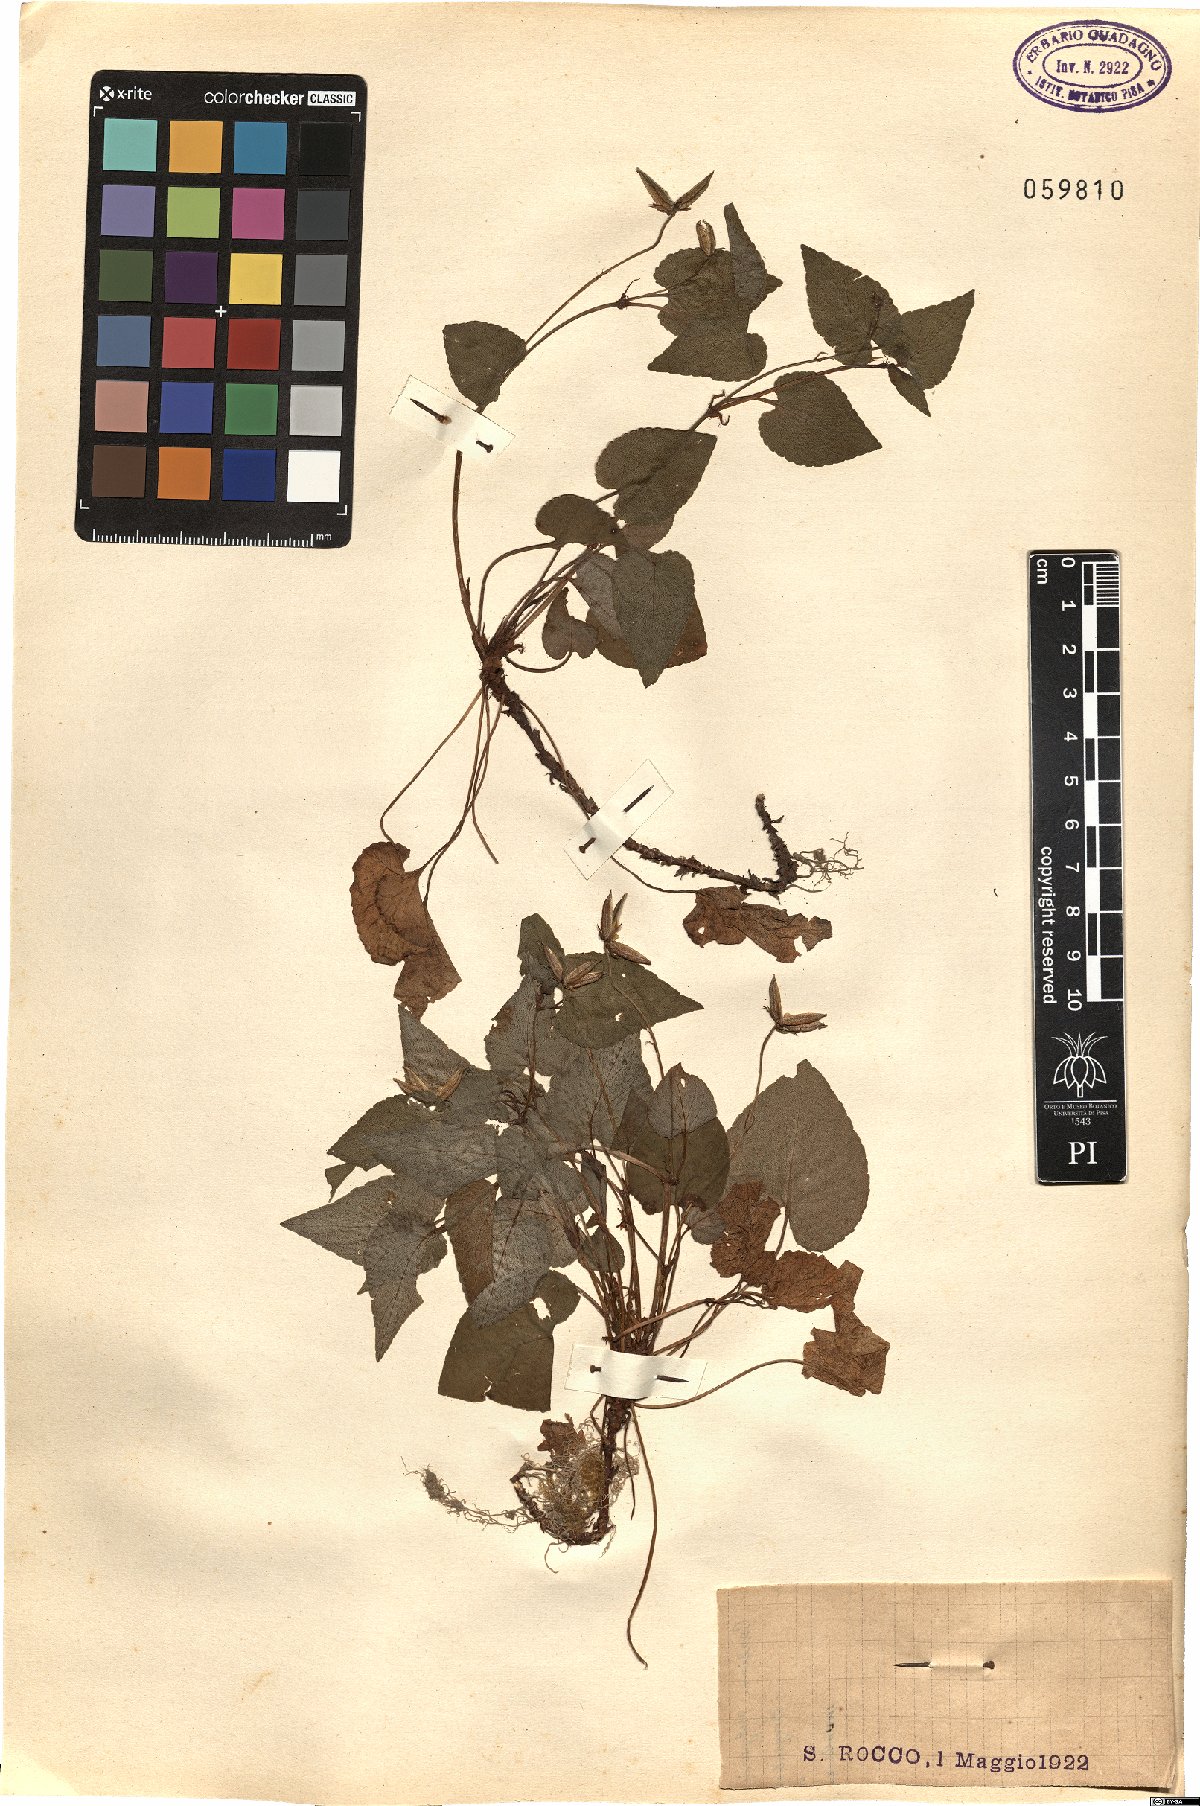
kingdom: Plantae
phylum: Tracheophyta
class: Magnoliopsida
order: Malpighiales
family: Violaceae
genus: Viola
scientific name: Viola
